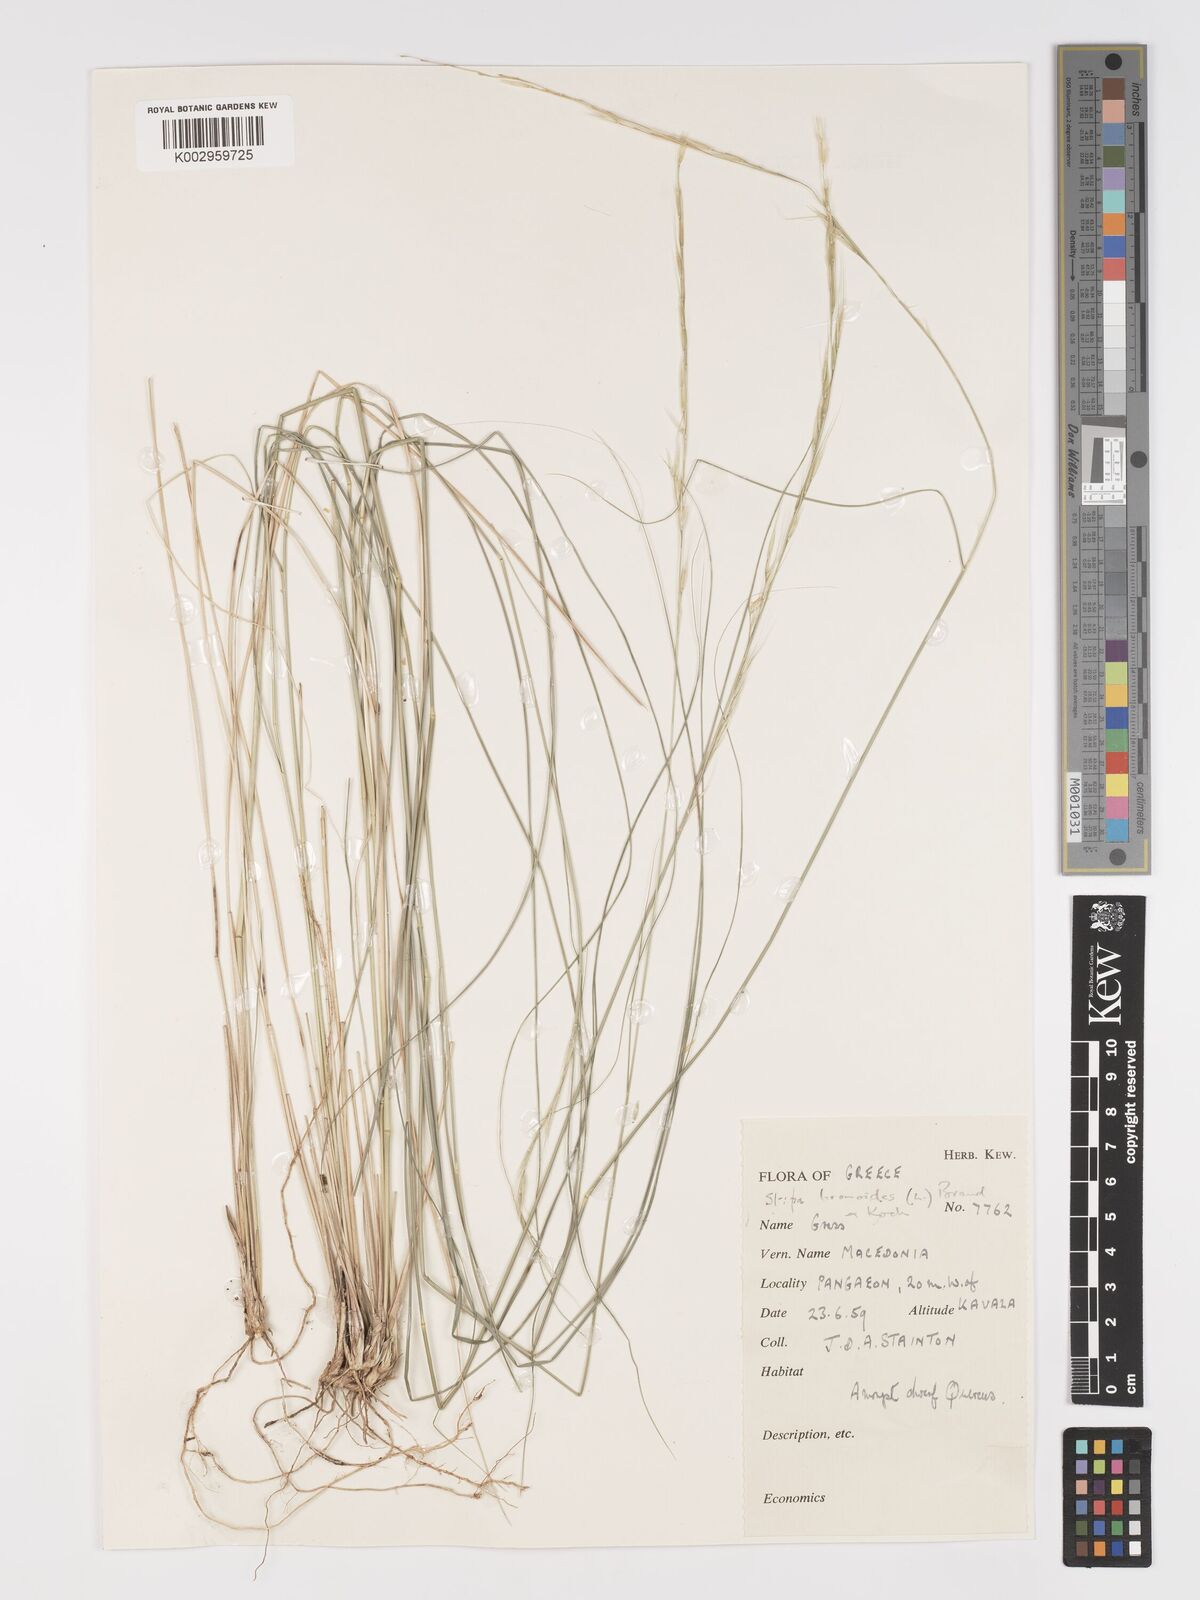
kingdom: Plantae
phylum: Tracheophyta
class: Liliopsida
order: Poales
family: Poaceae
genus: Achnatherum
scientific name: Achnatherum bromoides
